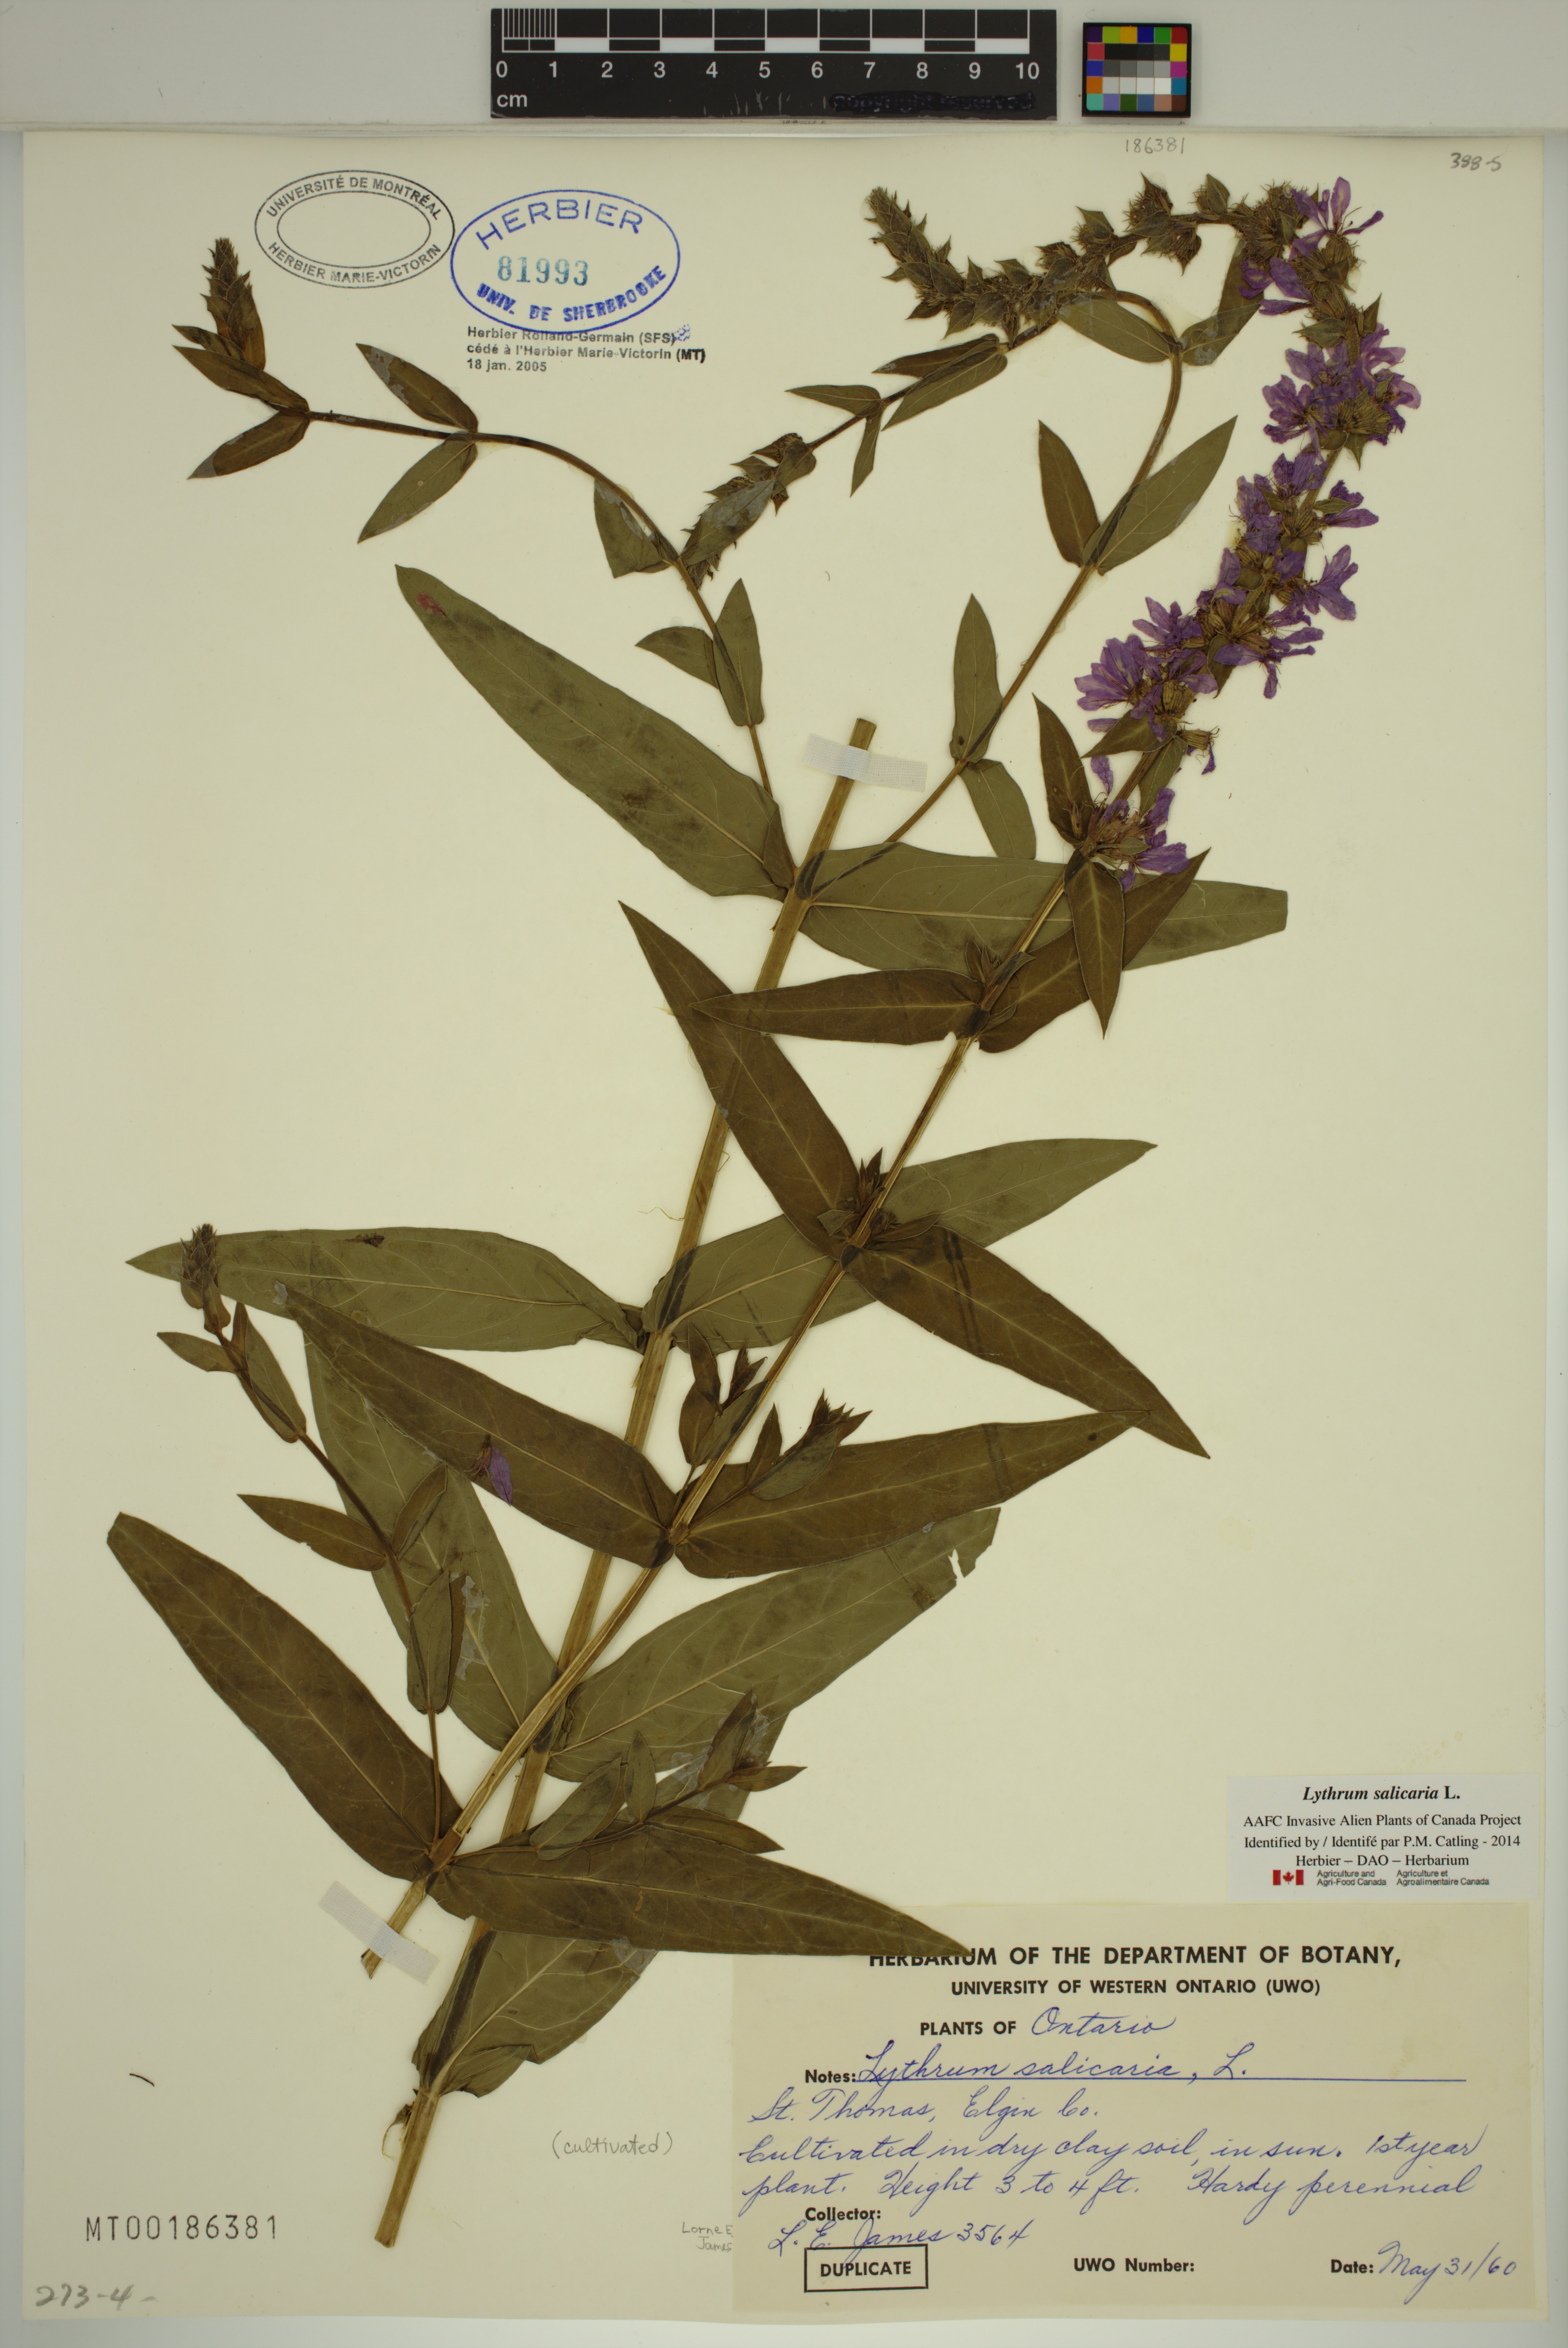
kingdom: Plantae
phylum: Tracheophyta
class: Magnoliopsida
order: Myrtales
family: Lythraceae
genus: Lythrum
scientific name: Lythrum salicaria
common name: Purple loosestrife
